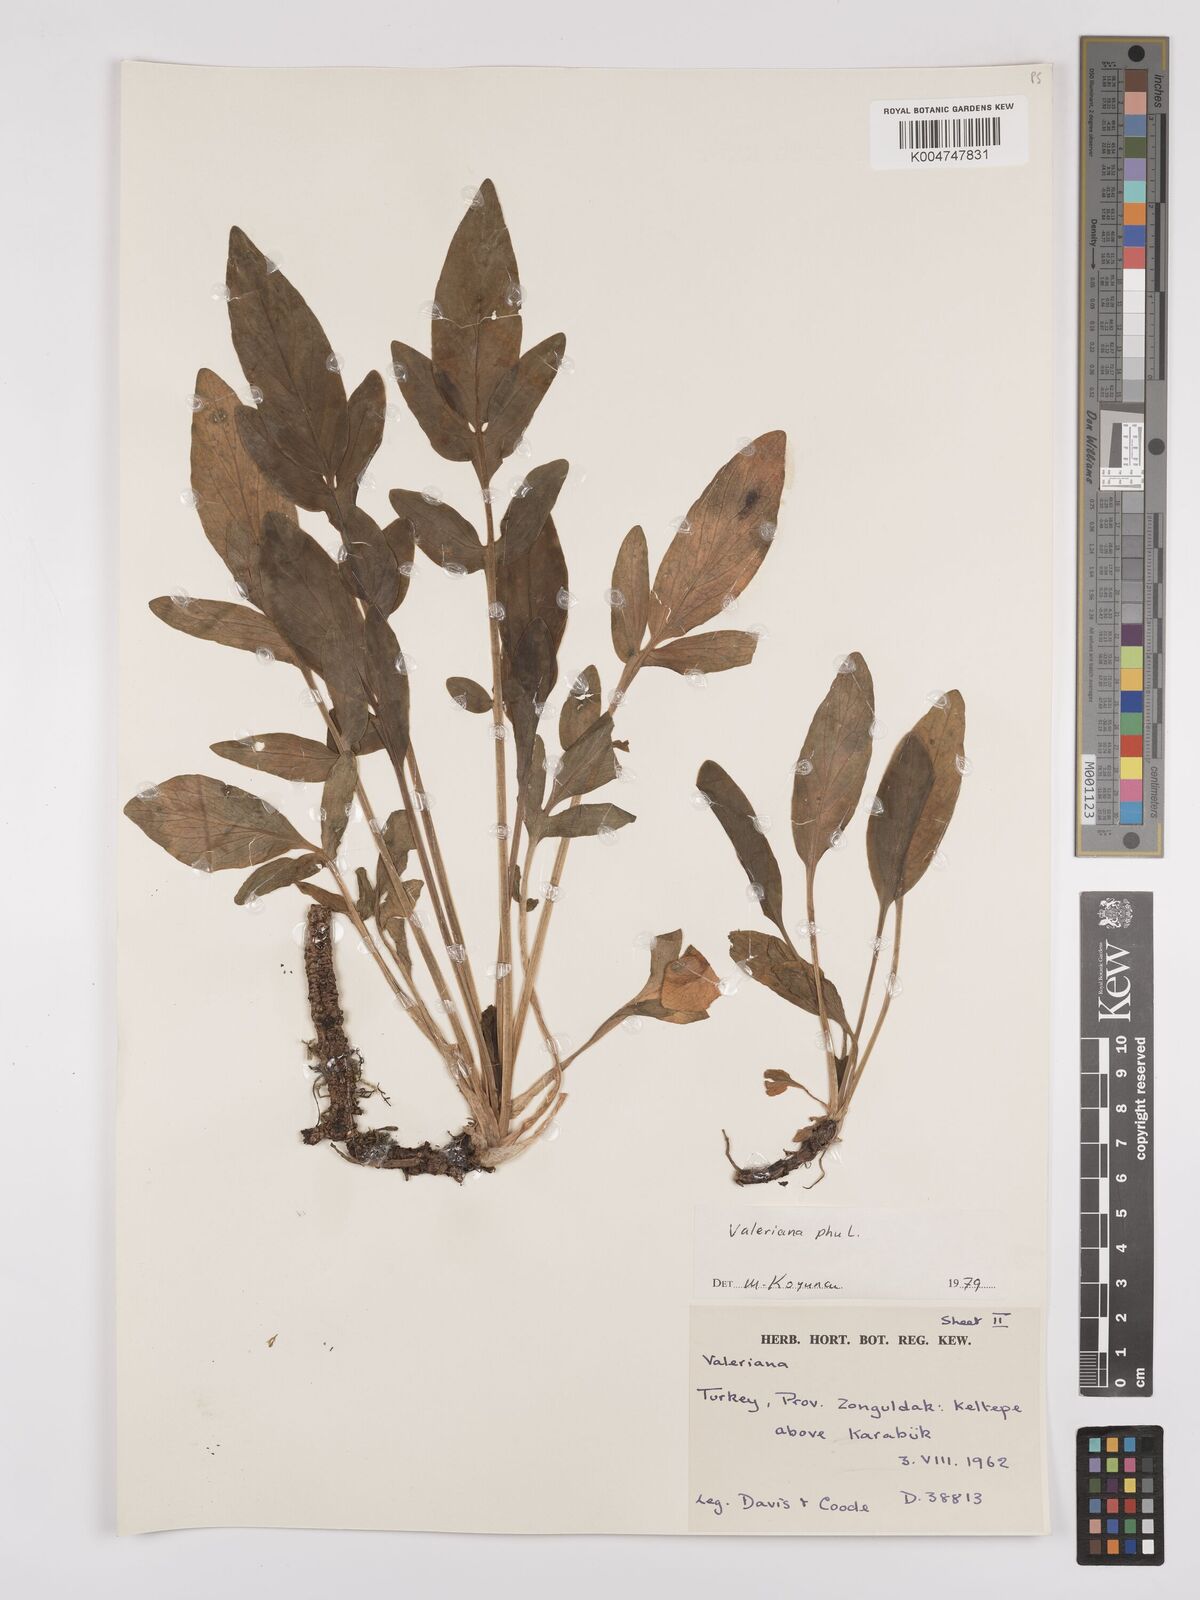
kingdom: Plantae
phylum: Tracheophyta
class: Magnoliopsida
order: Dipsacales
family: Caprifoliaceae
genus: Valeriana
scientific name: Valeriana
